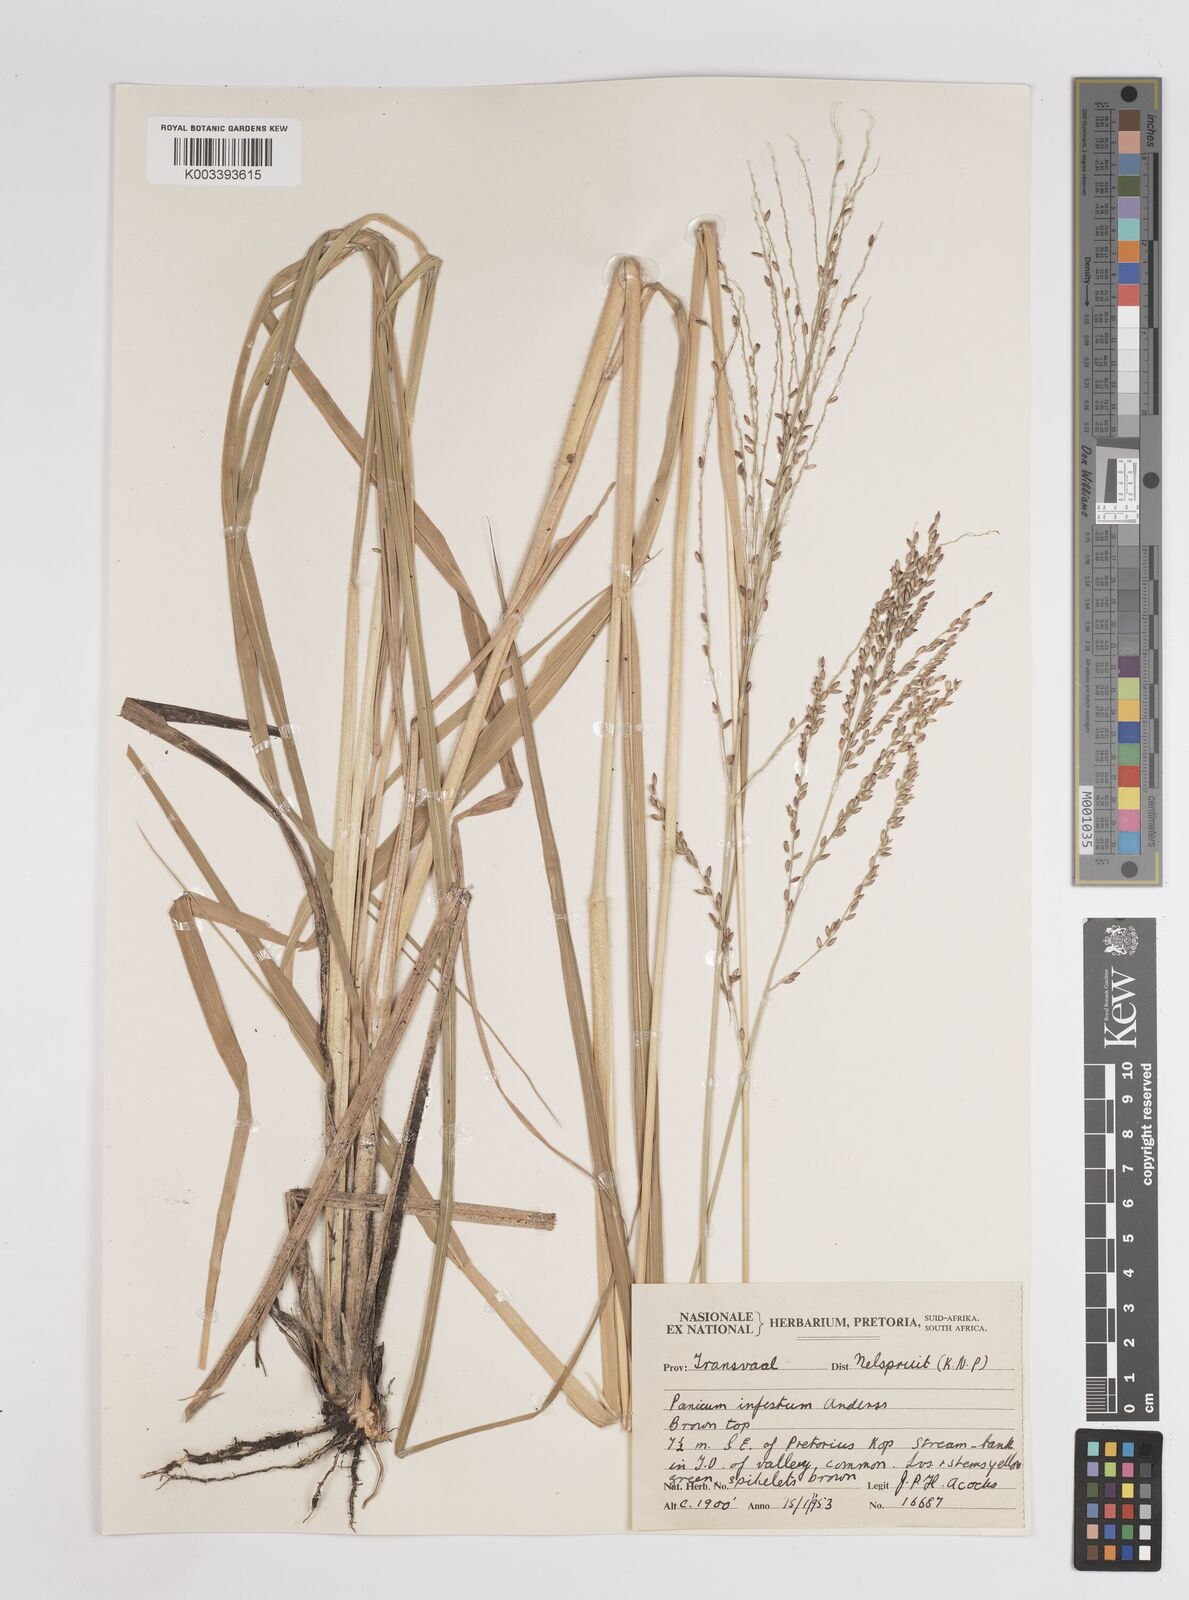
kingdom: Plantae
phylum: Tracheophyta
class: Liliopsida
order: Poales
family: Poaceae
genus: Megathyrsus
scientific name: Megathyrsus infestus
